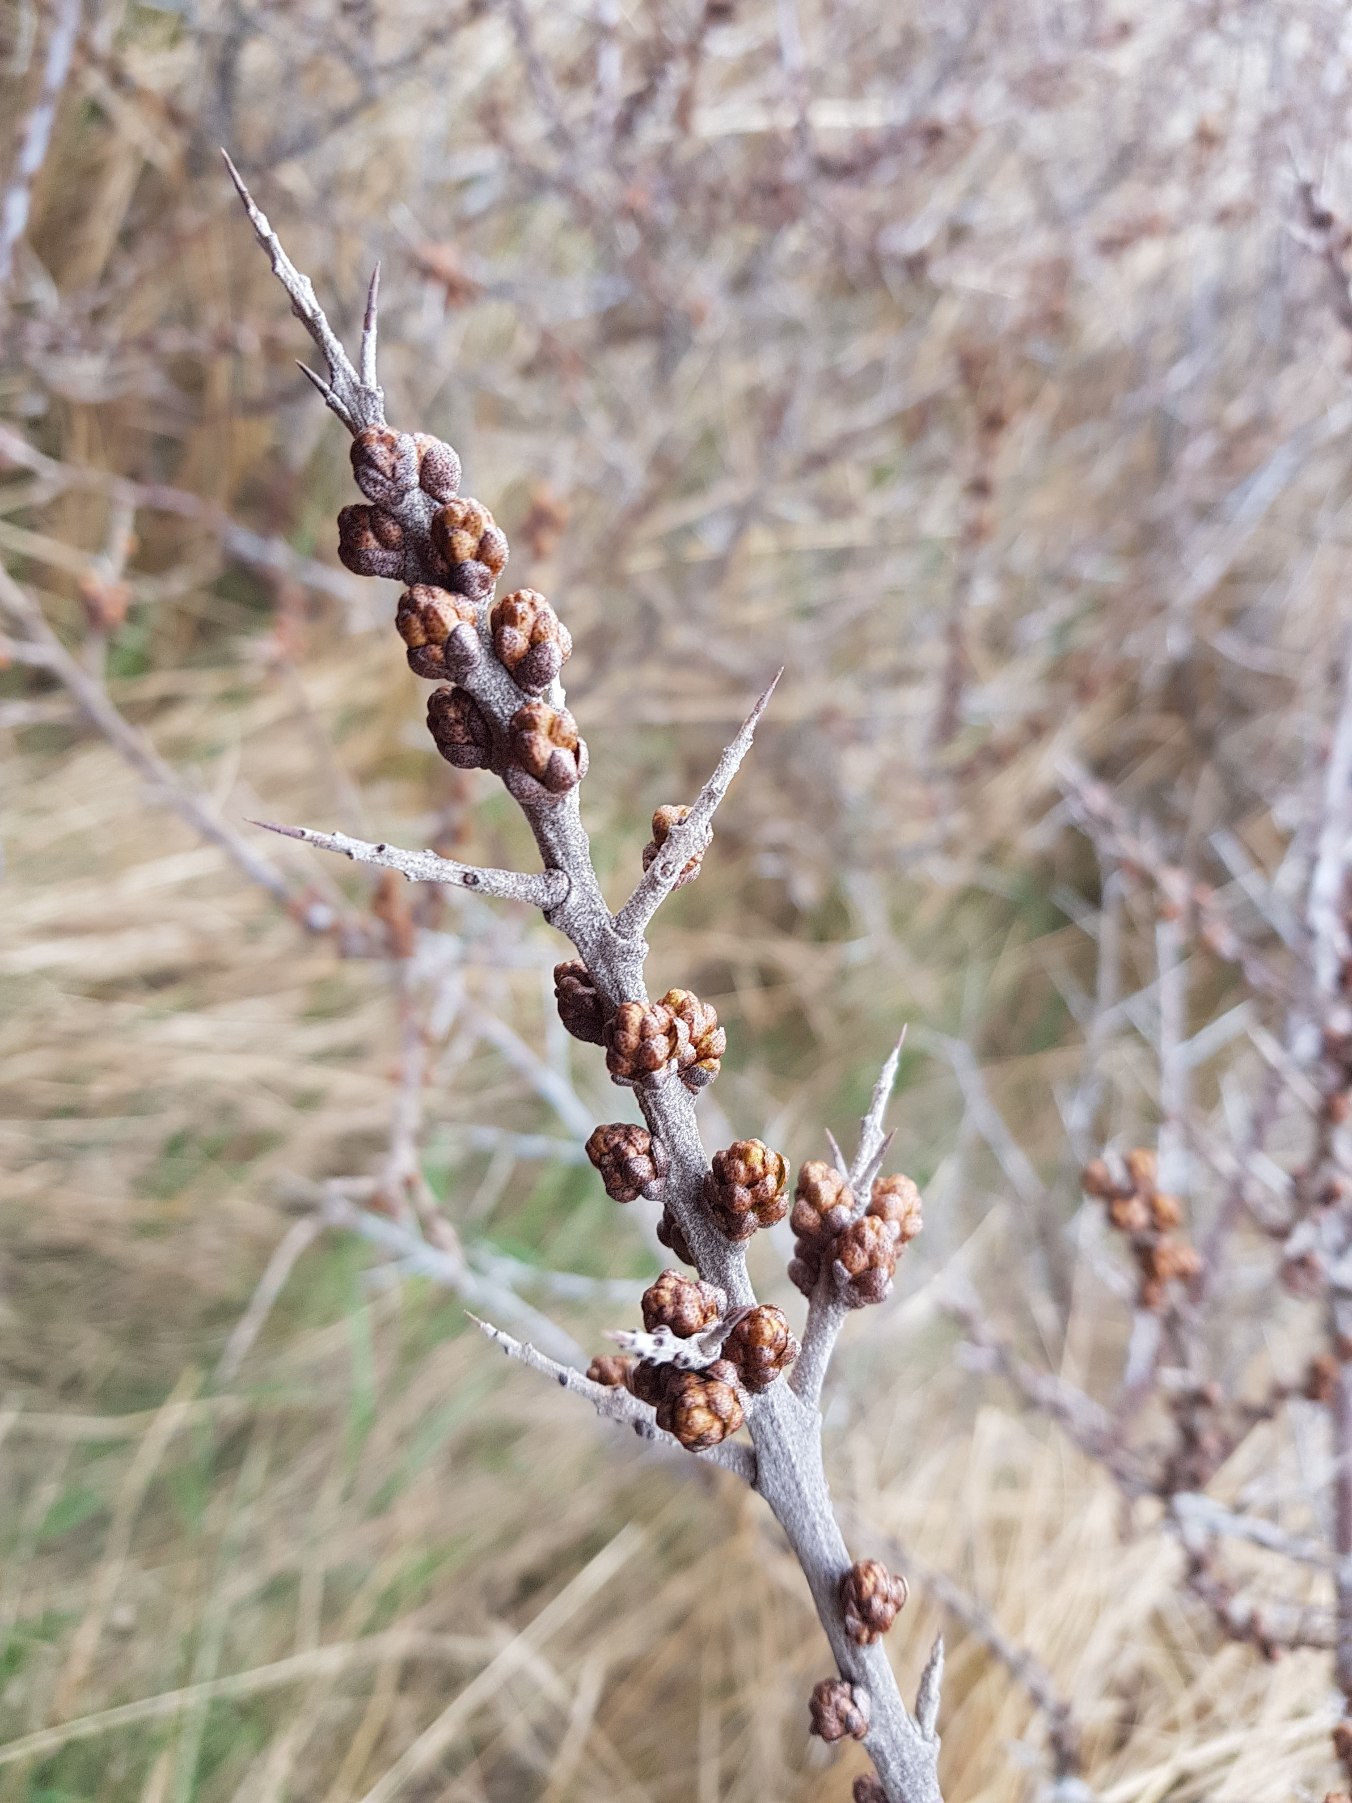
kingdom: Plantae
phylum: Tracheophyta
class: Magnoliopsida
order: Rosales
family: Elaeagnaceae
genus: Hippophae
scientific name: Hippophae rhamnoides
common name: Havtorn
